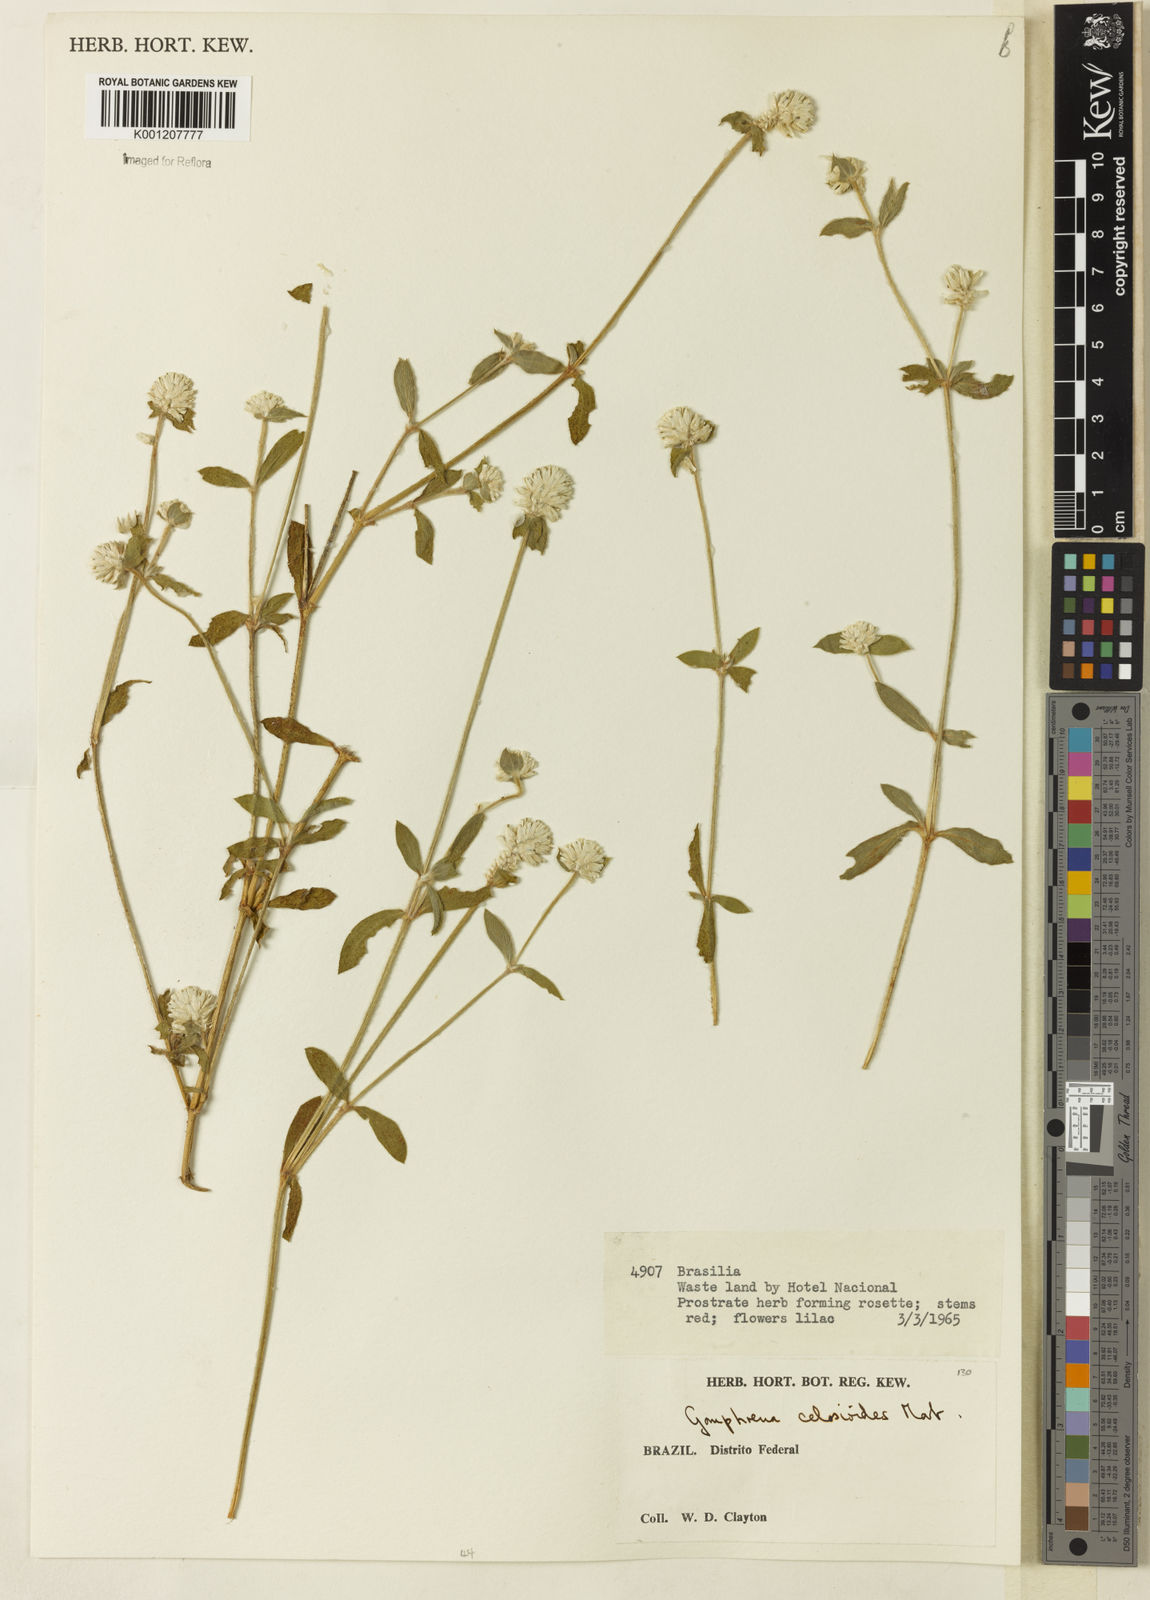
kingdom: Plantae
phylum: Tracheophyta
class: Magnoliopsida
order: Caryophyllales
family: Amaranthaceae
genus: Gomphrena
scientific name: Gomphrena celosioides
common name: Gomphrena-weed
